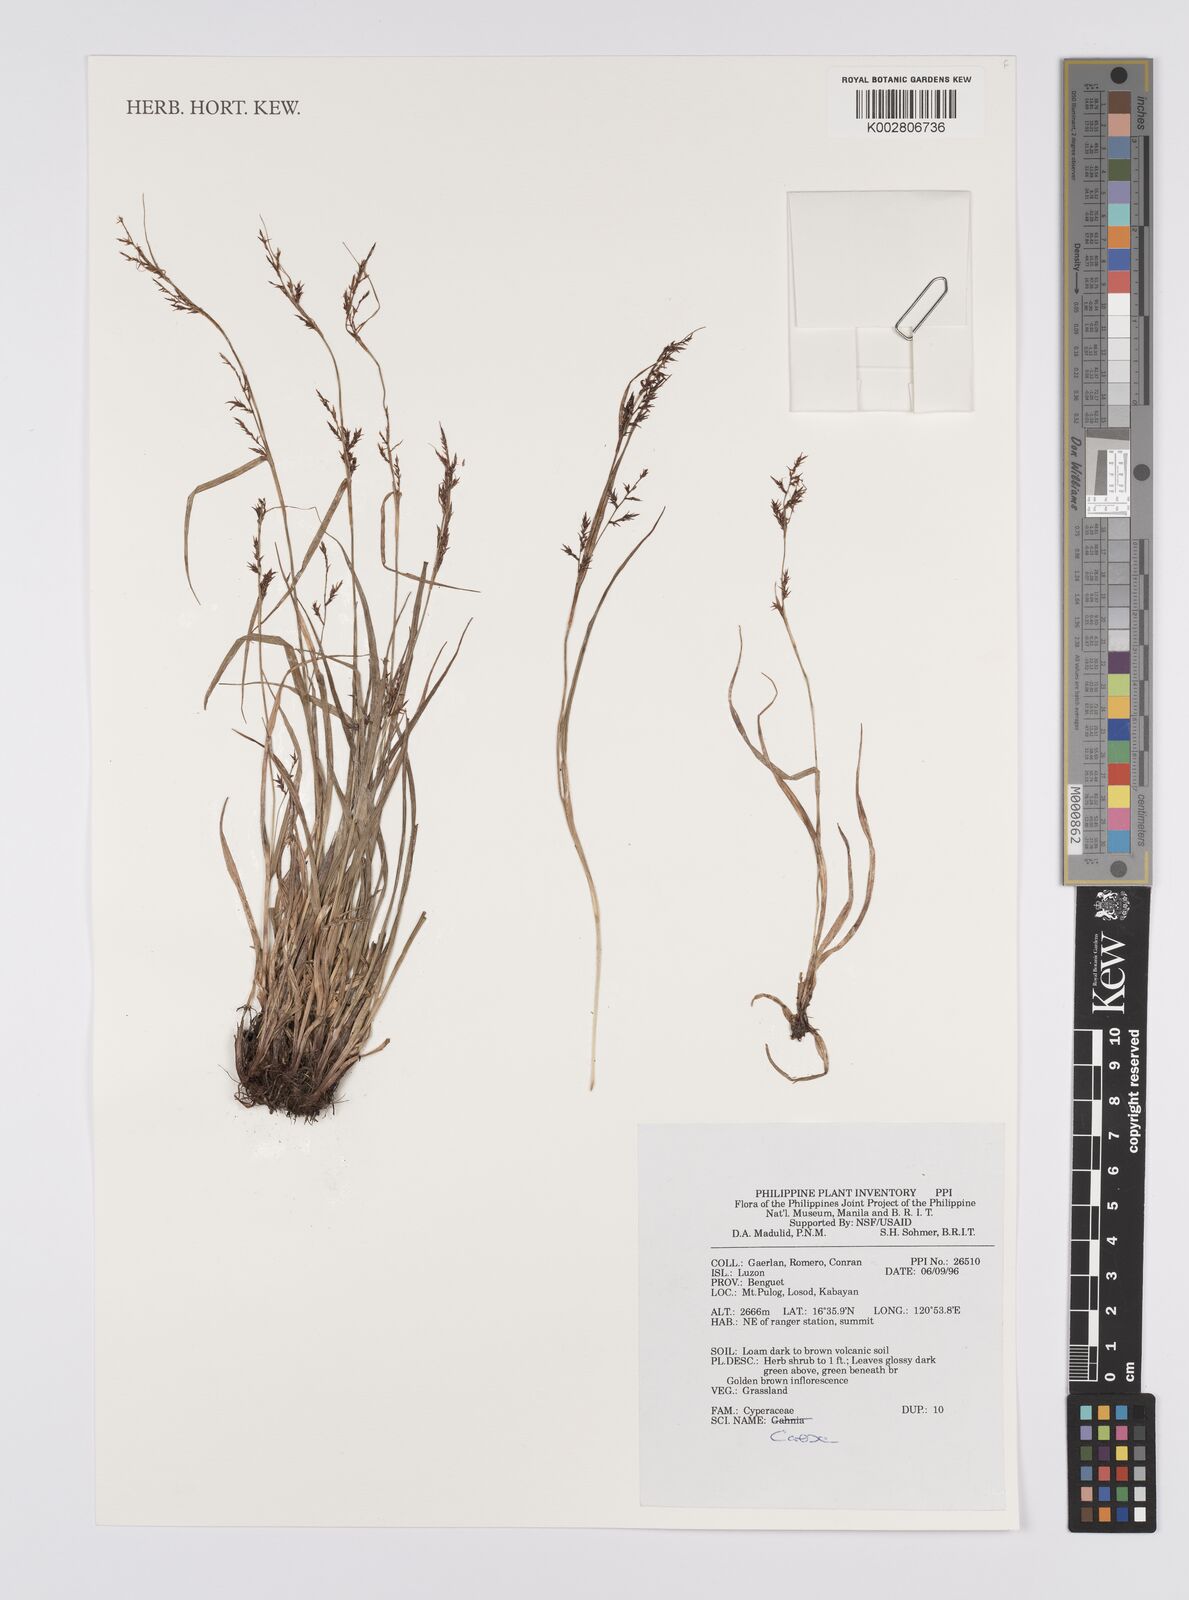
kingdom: Plantae
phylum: Tracheophyta
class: Liliopsida
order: Poales
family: Cyperaceae
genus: Carex
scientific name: Carex
